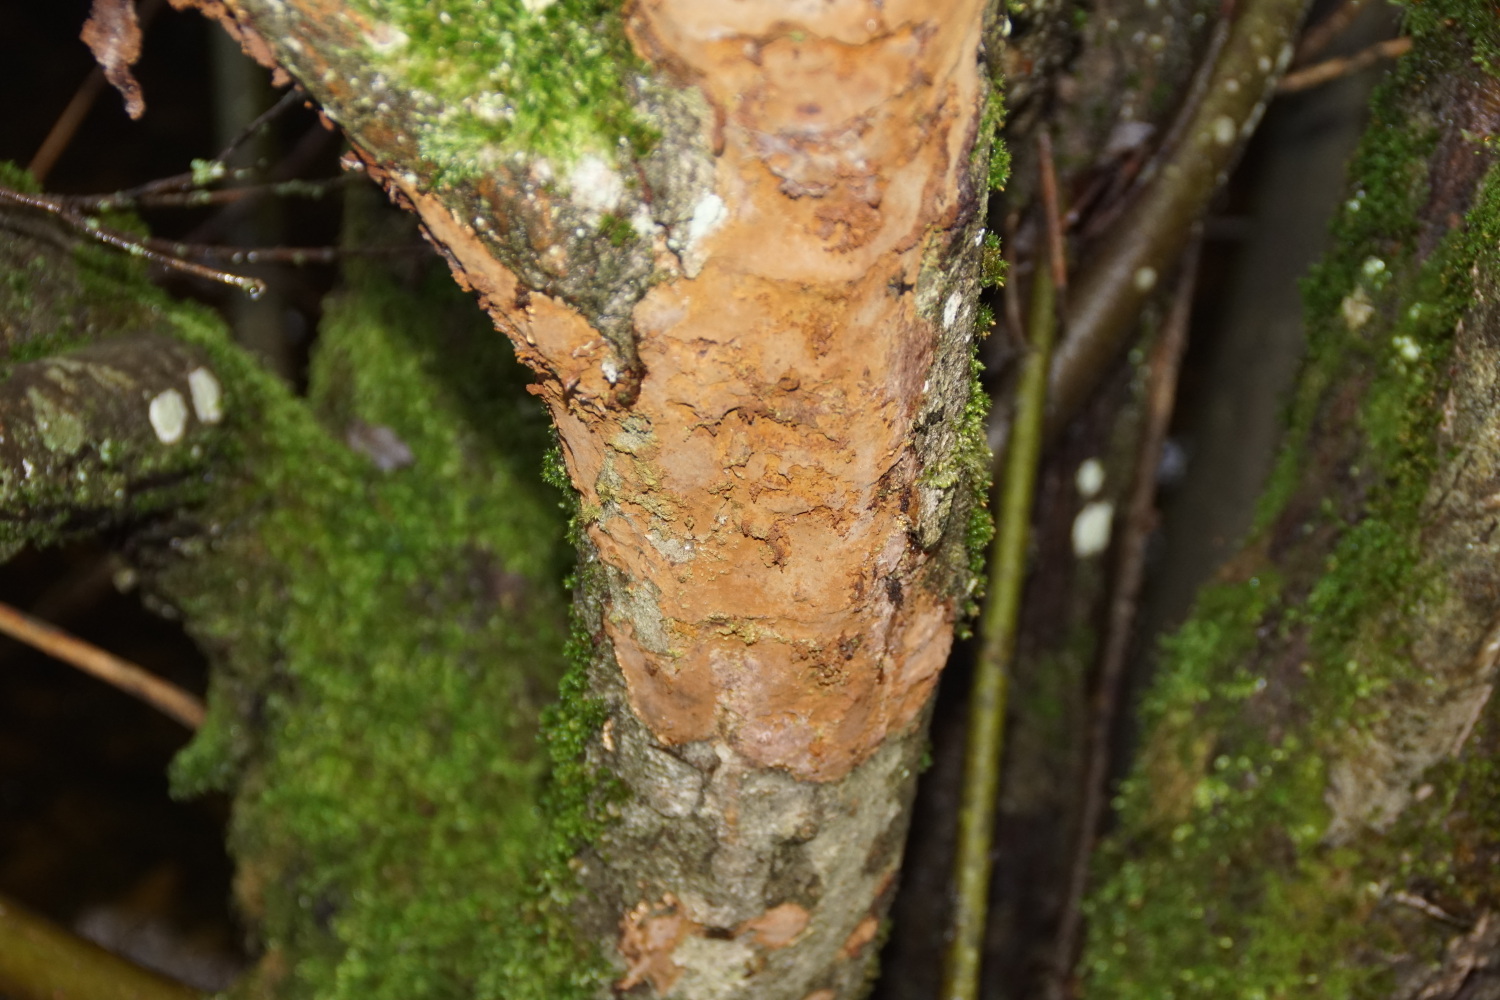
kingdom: Fungi
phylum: Basidiomycota
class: Agaricomycetes
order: Hymenochaetales
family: Hymenochaetaceae
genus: Fuscoporia
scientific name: Fuscoporia ferrea
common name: skorpe-ildporesvamp
